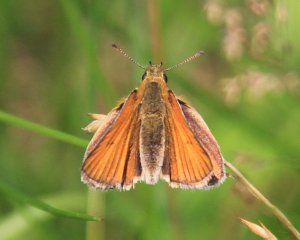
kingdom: Animalia
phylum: Arthropoda
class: Insecta
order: Lepidoptera
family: Hesperiidae
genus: Thymelicus
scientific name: Thymelicus lineola
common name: European Skipper
